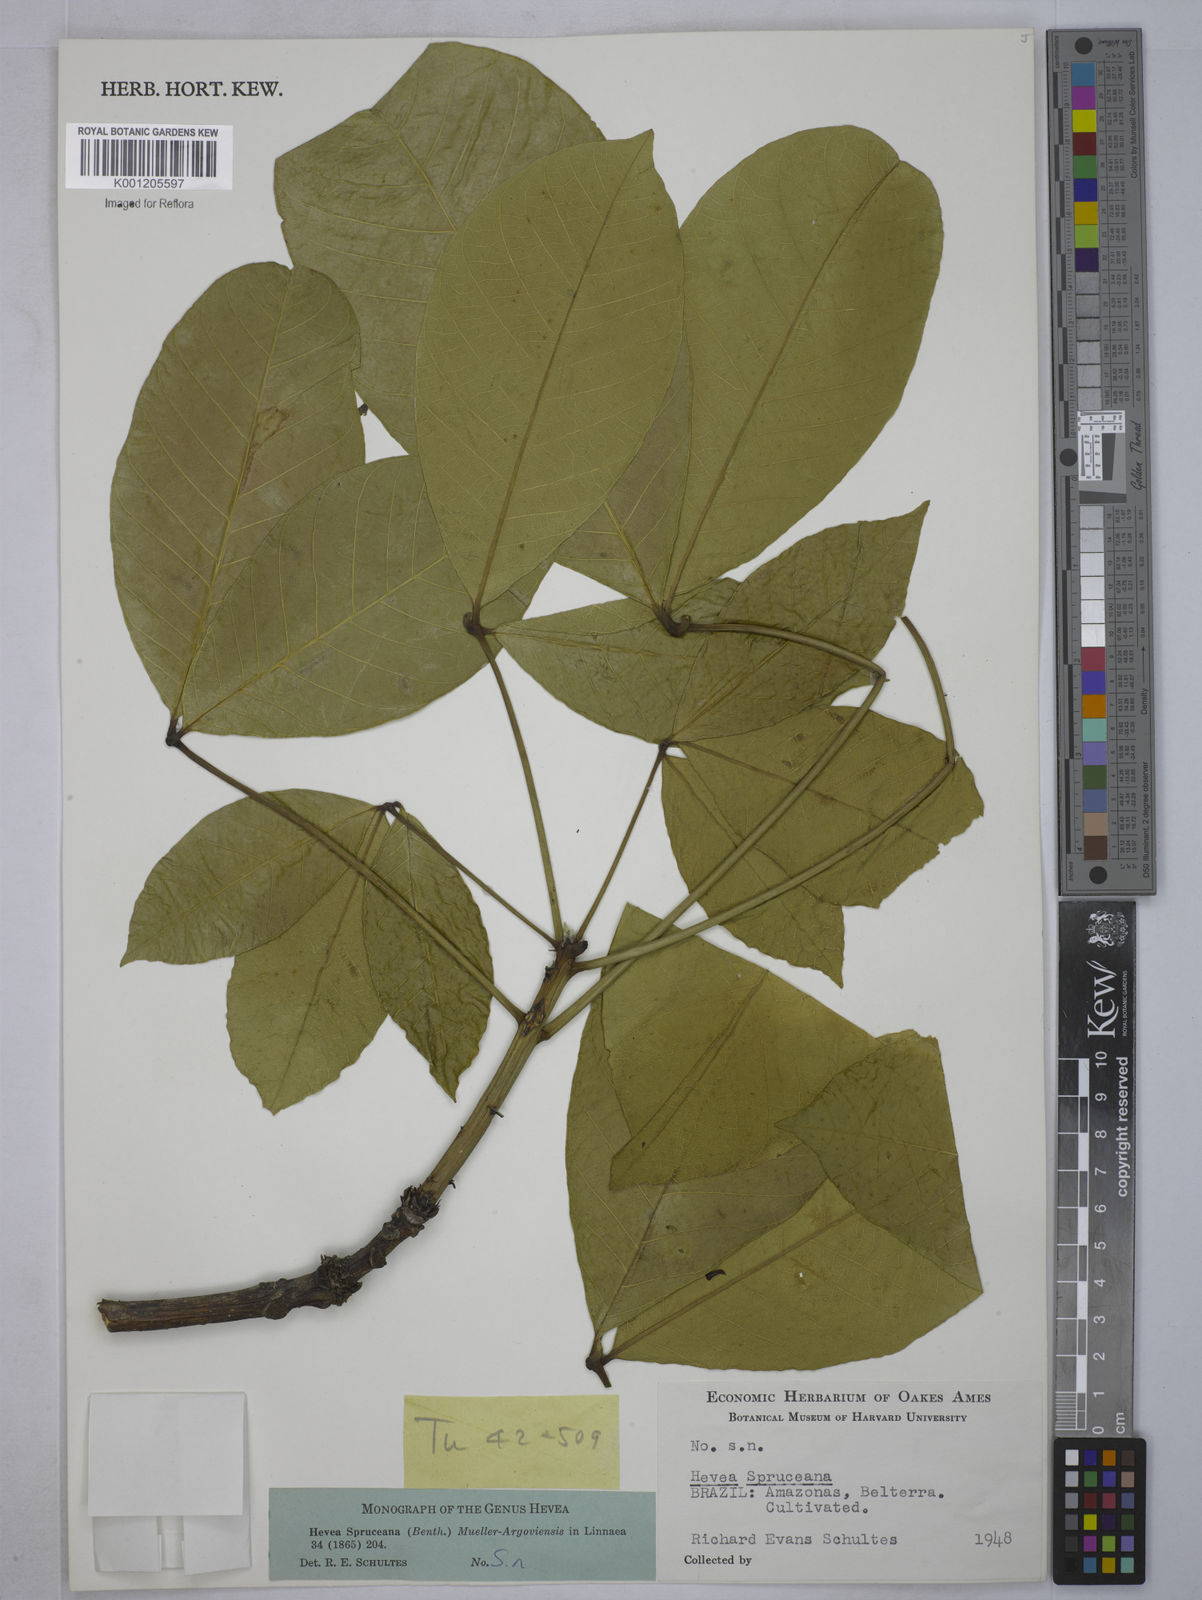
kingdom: Plantae
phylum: Tracheophyta
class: Magnoliopsida
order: Malpighiales
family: Euphorbiaceae
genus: Hevea
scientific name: Hevea
